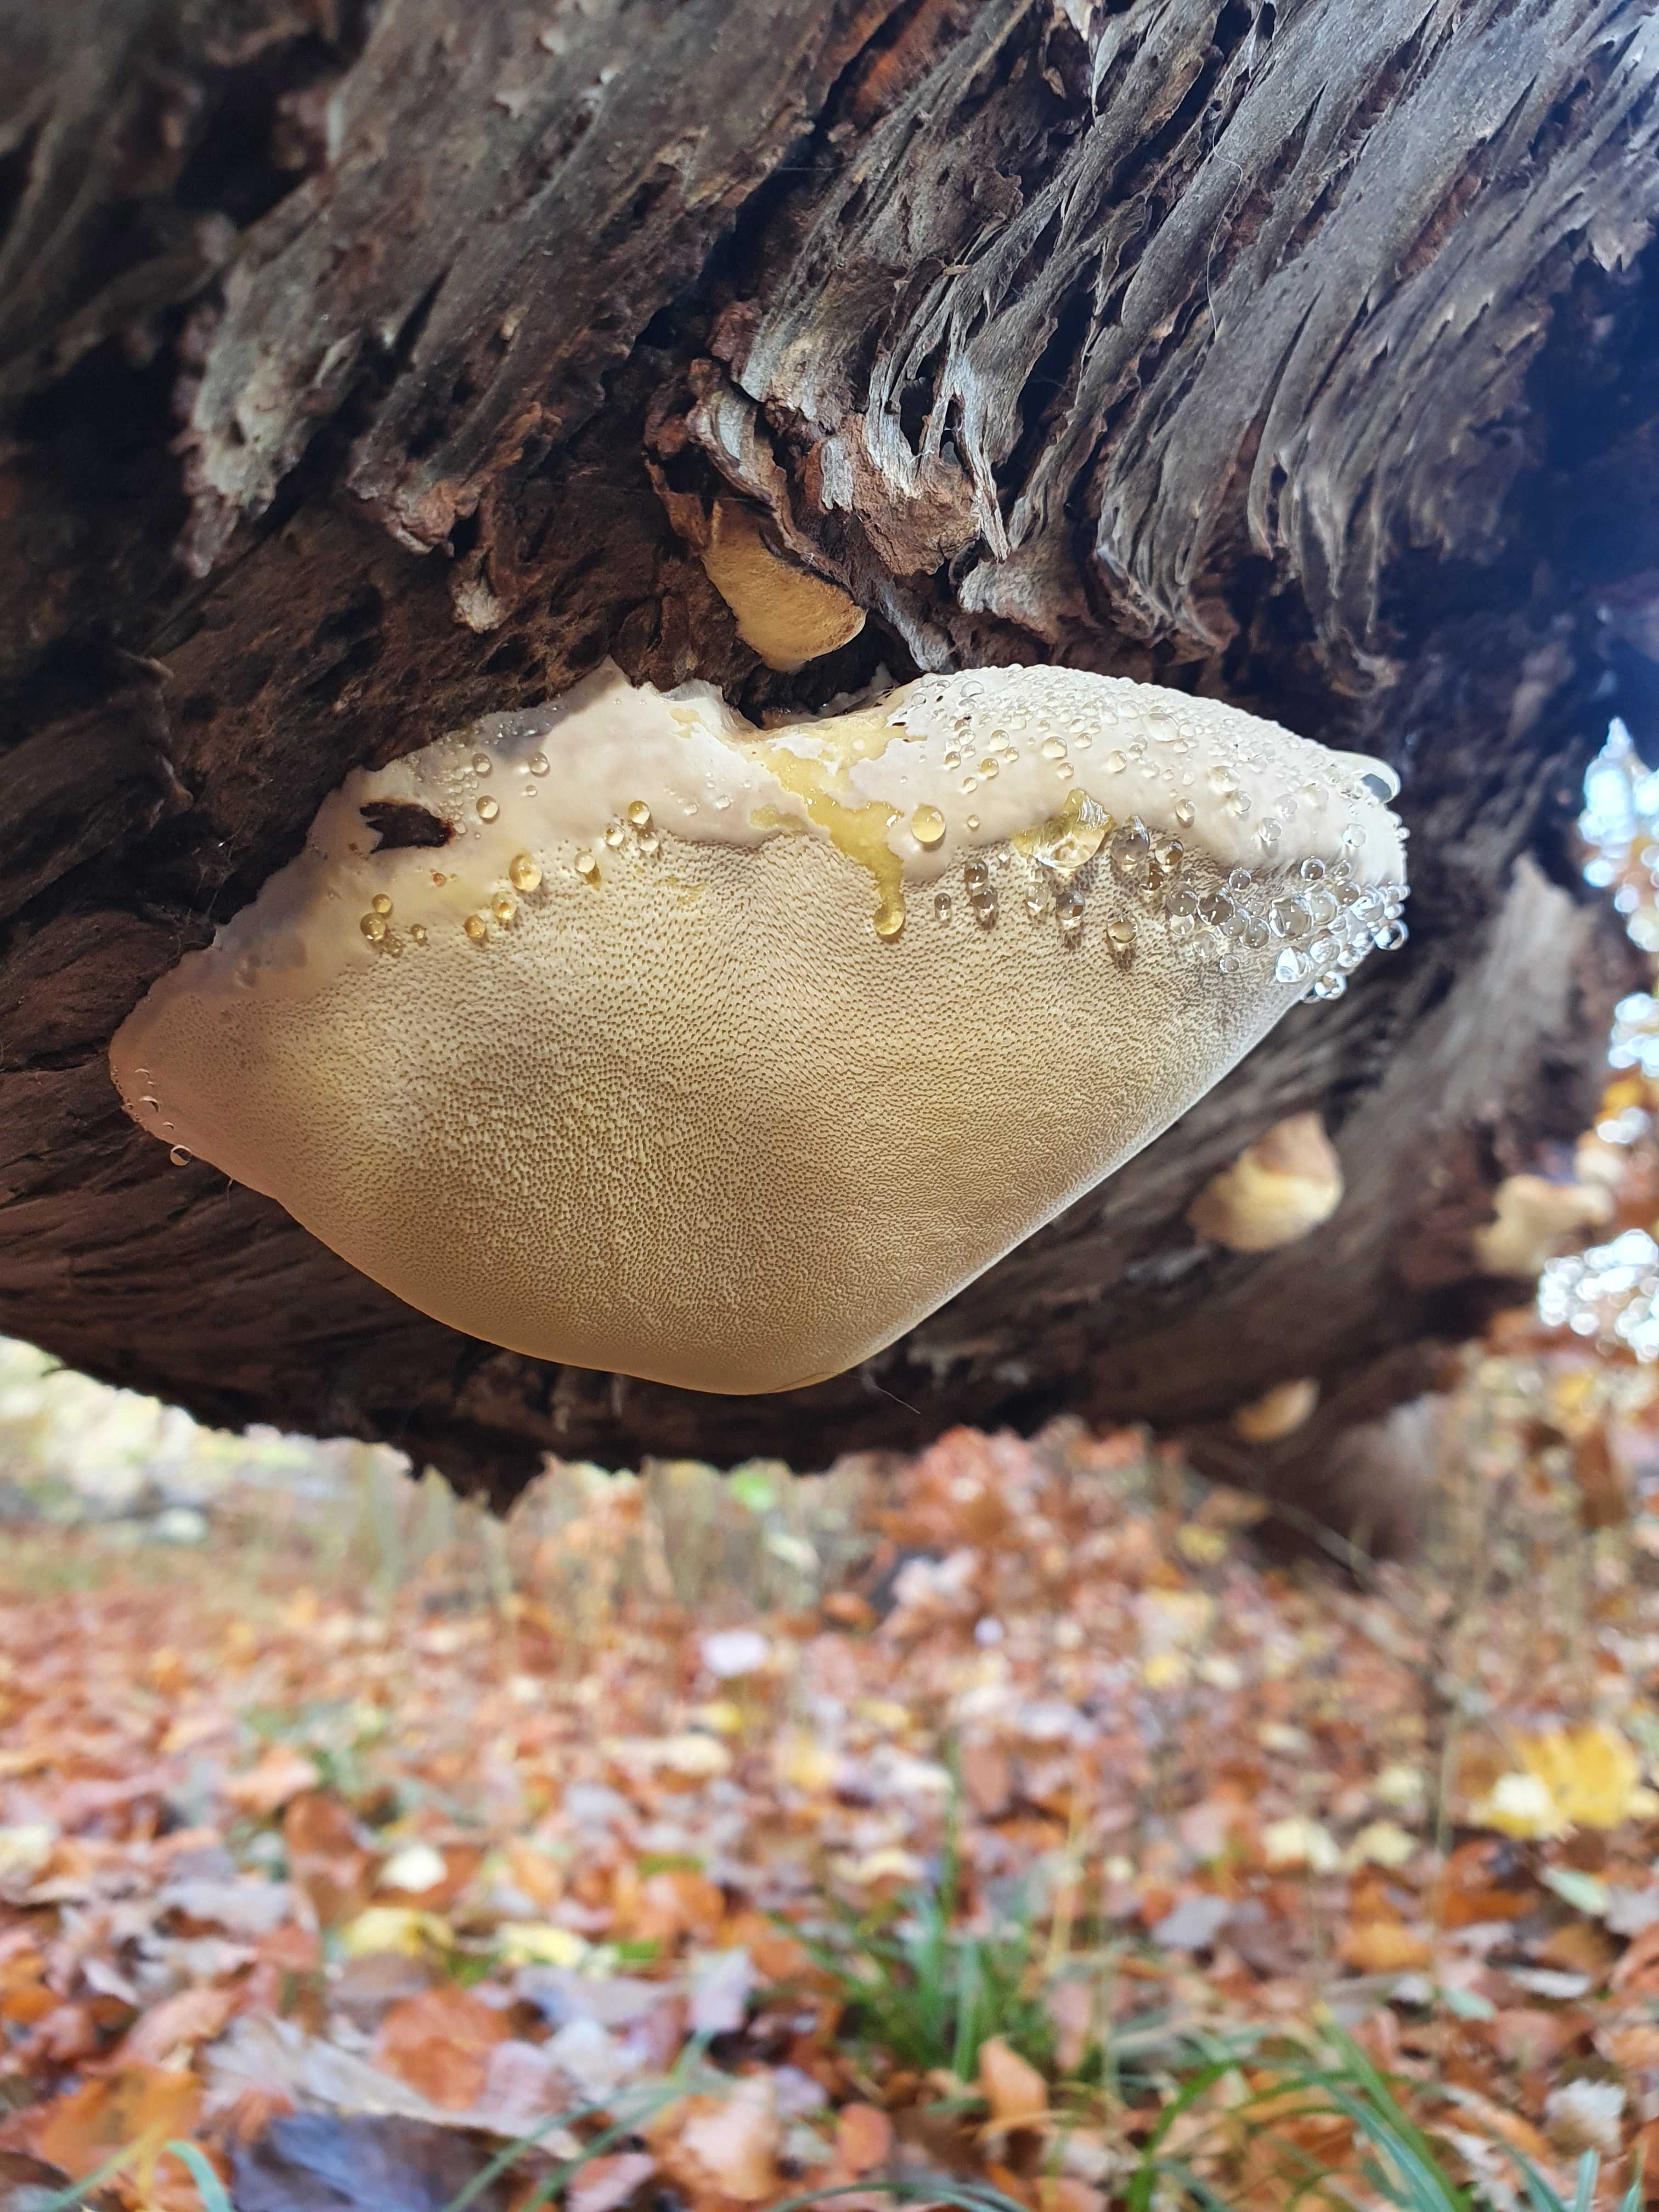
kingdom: Fungi
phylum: Basidiomycota
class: Agaricomycetes
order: Polyporales
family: Fomitopsidaceae
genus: Fomitopsis
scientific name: Fomitopsis pinicola
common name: randbæltet hovporesvamp
